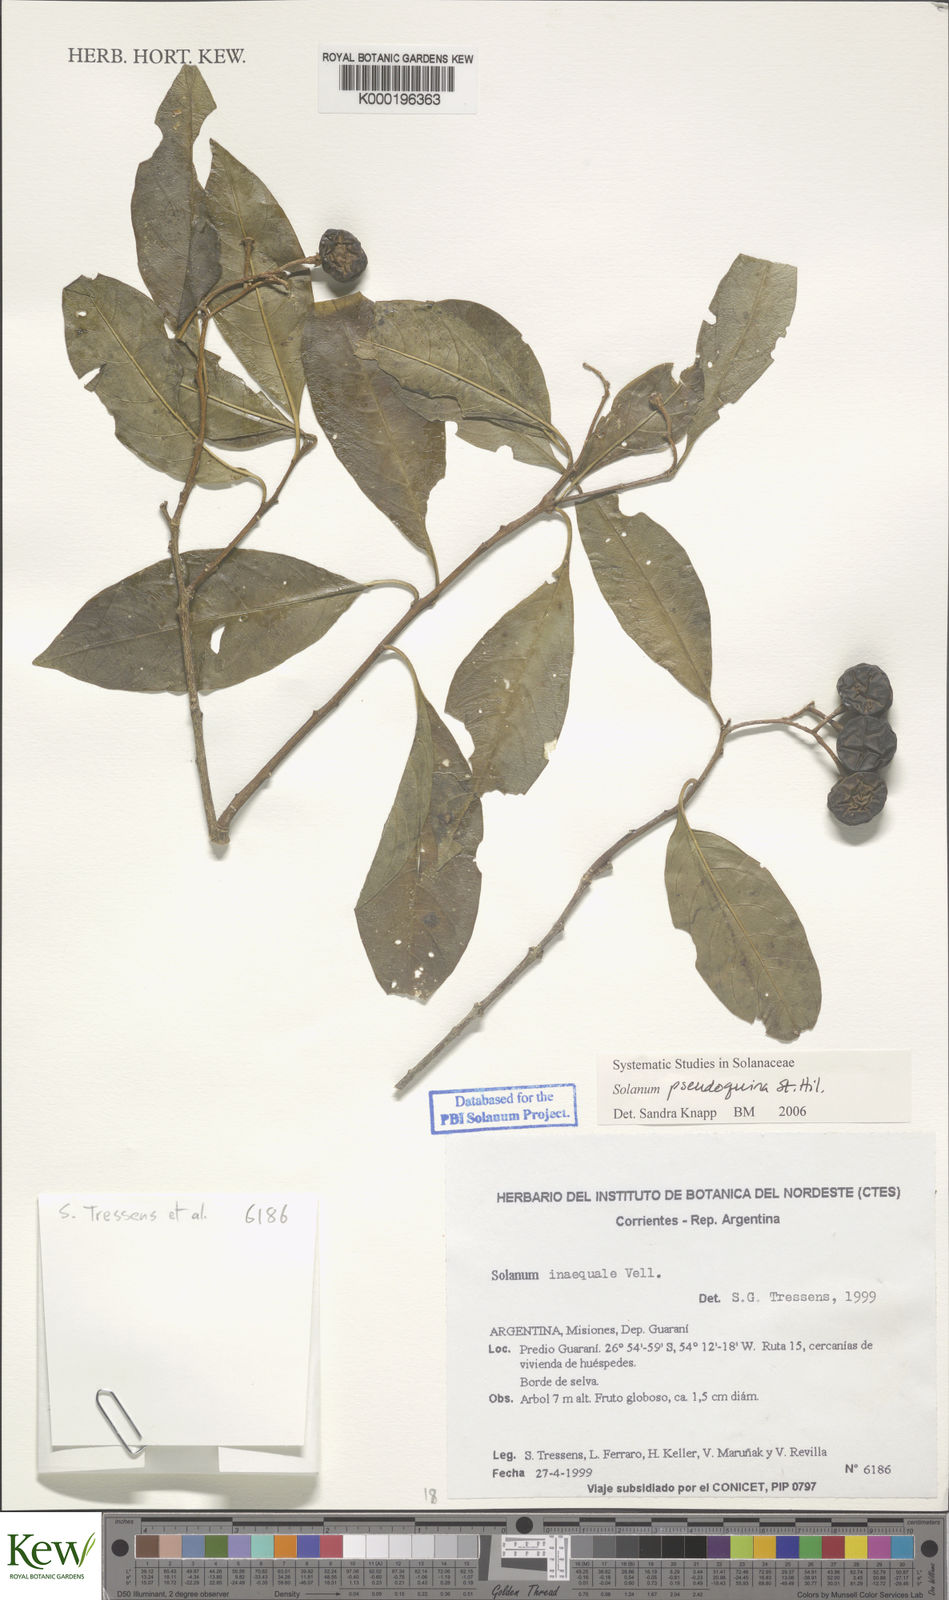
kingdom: Plantae
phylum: Tracheophyta
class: Magnoliopsida
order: Solanales
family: Solanaceae
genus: Solanum
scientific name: Solanum pseudoquina
